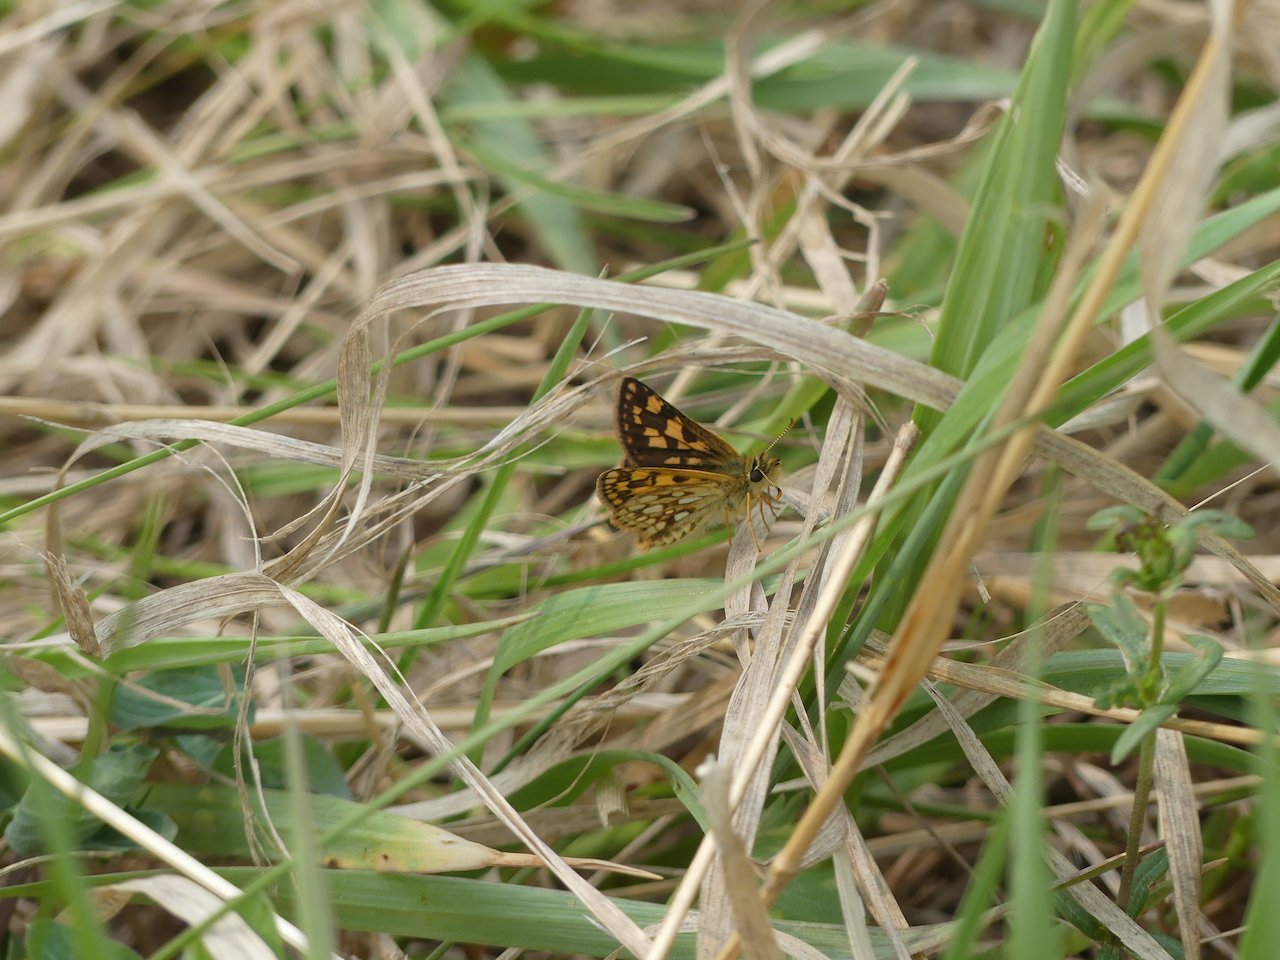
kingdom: Animalia
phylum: Arthropoda
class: Insecta
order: Lepidoptera
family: Hesperiidae
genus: Carterocephalus
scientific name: Carterocephalus palaemon
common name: Chequered Skipper
